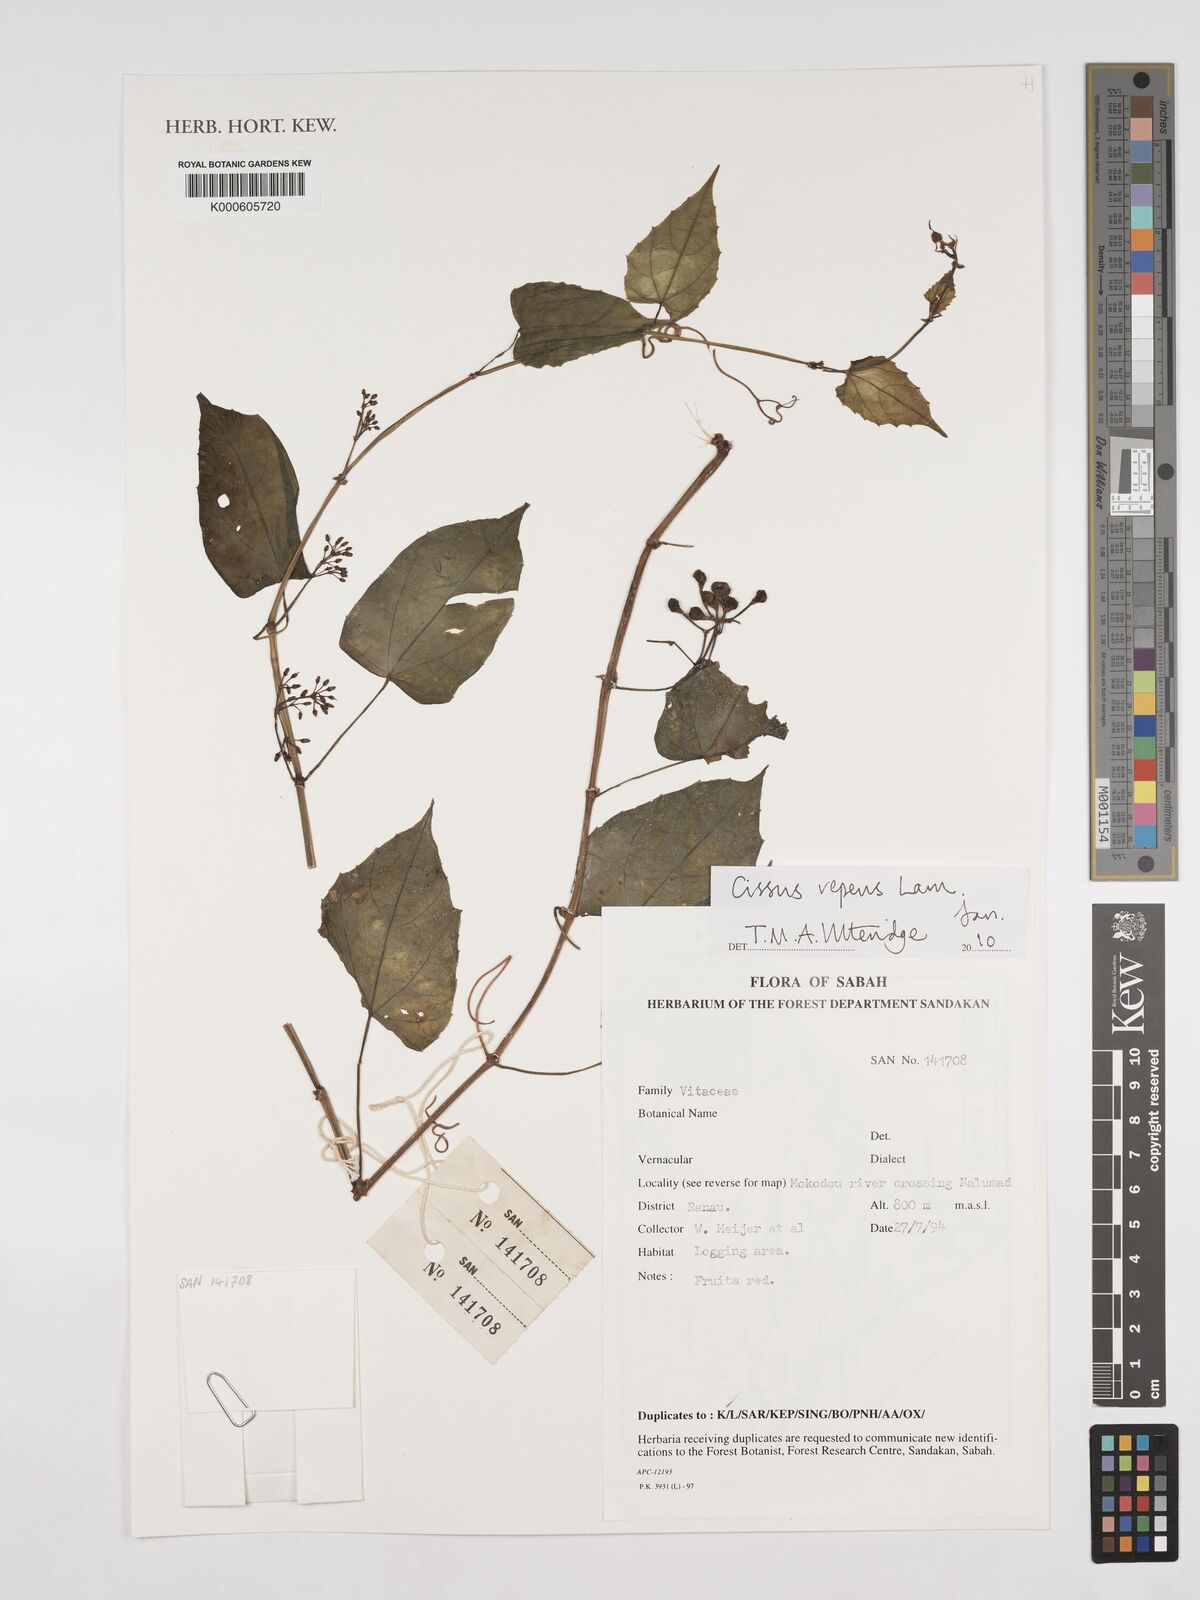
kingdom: Plantae
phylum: Tracheophyta
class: Magnoliopsida
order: Vitales
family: Vitaceae
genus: Cissus
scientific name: Cissus repens
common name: Cissus
